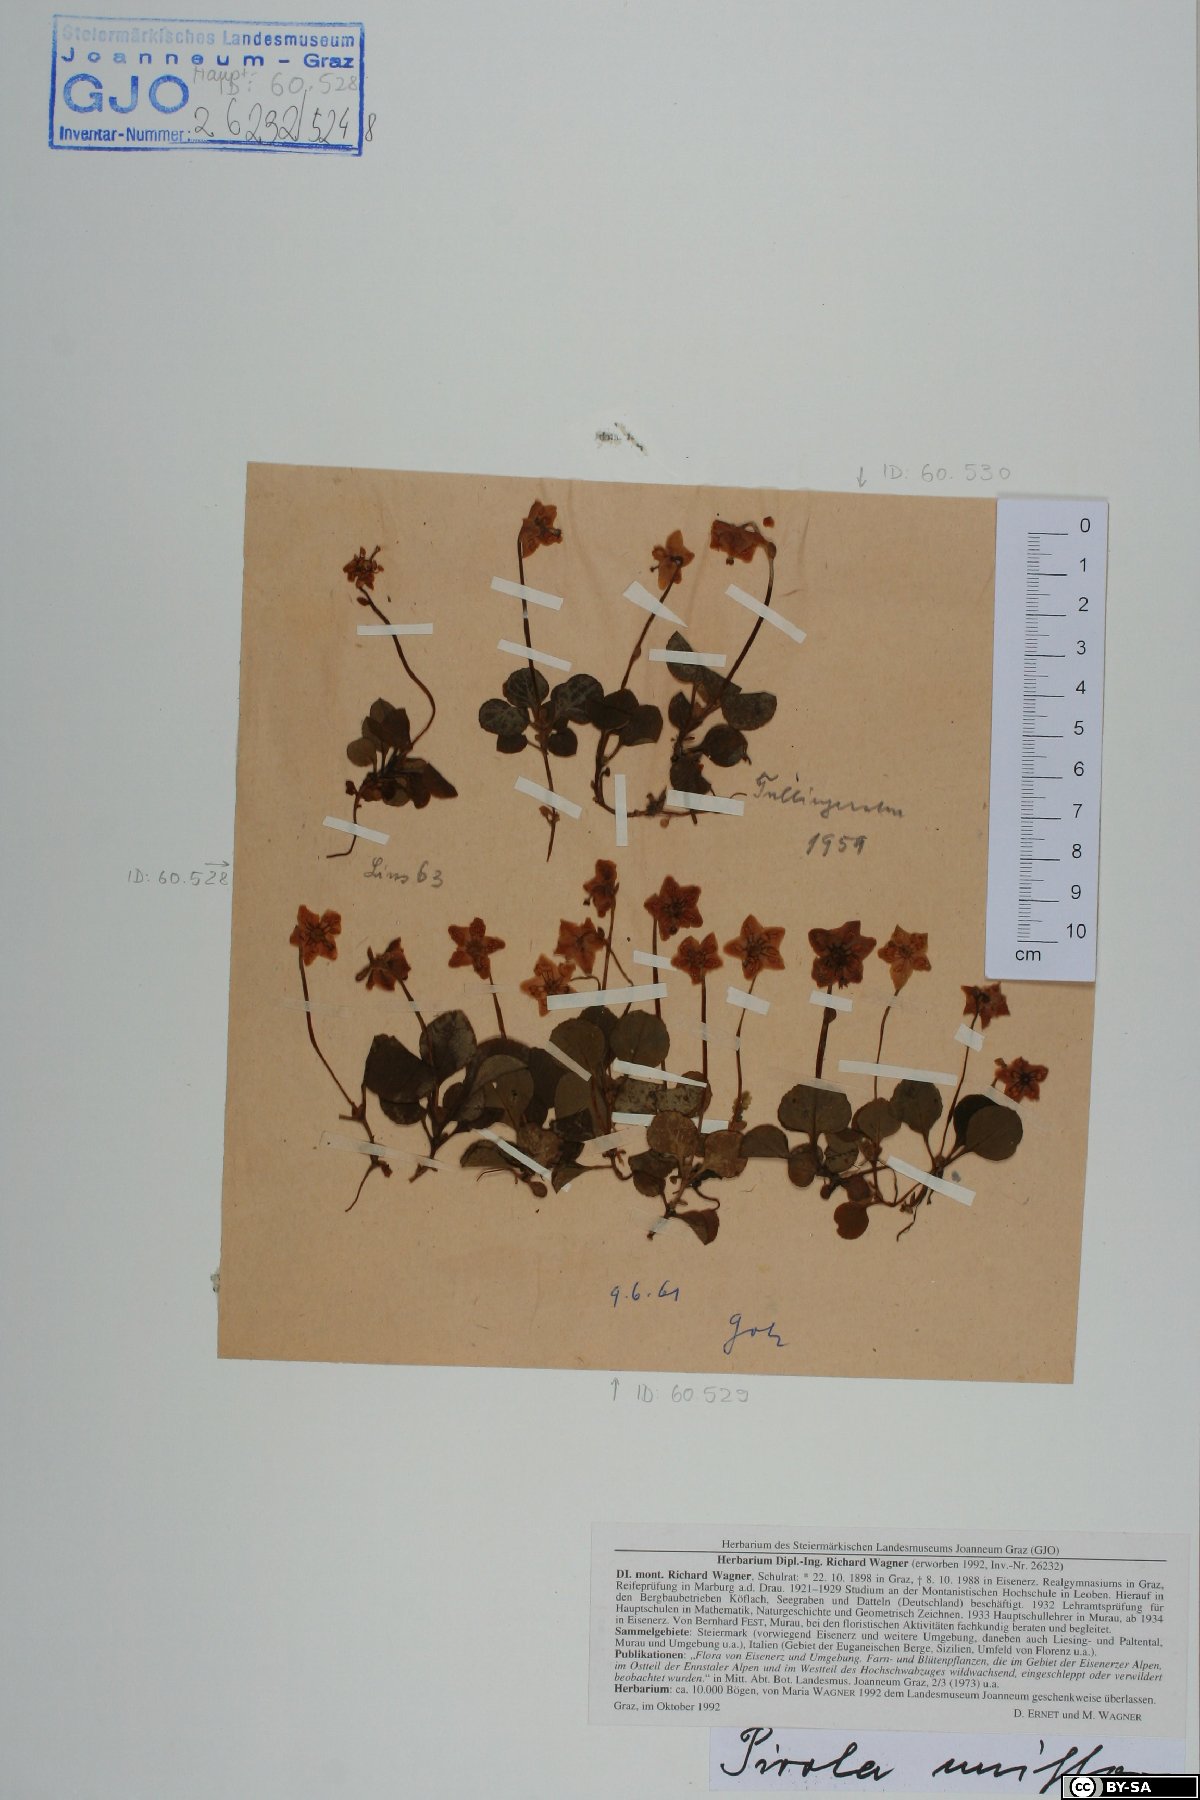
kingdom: Plantae
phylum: Tracheophyta
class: Magnoliopsida
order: Ericales
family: Ericaceae
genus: Moneses
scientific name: Moneses uniflora
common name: One-flowered wintergreen
